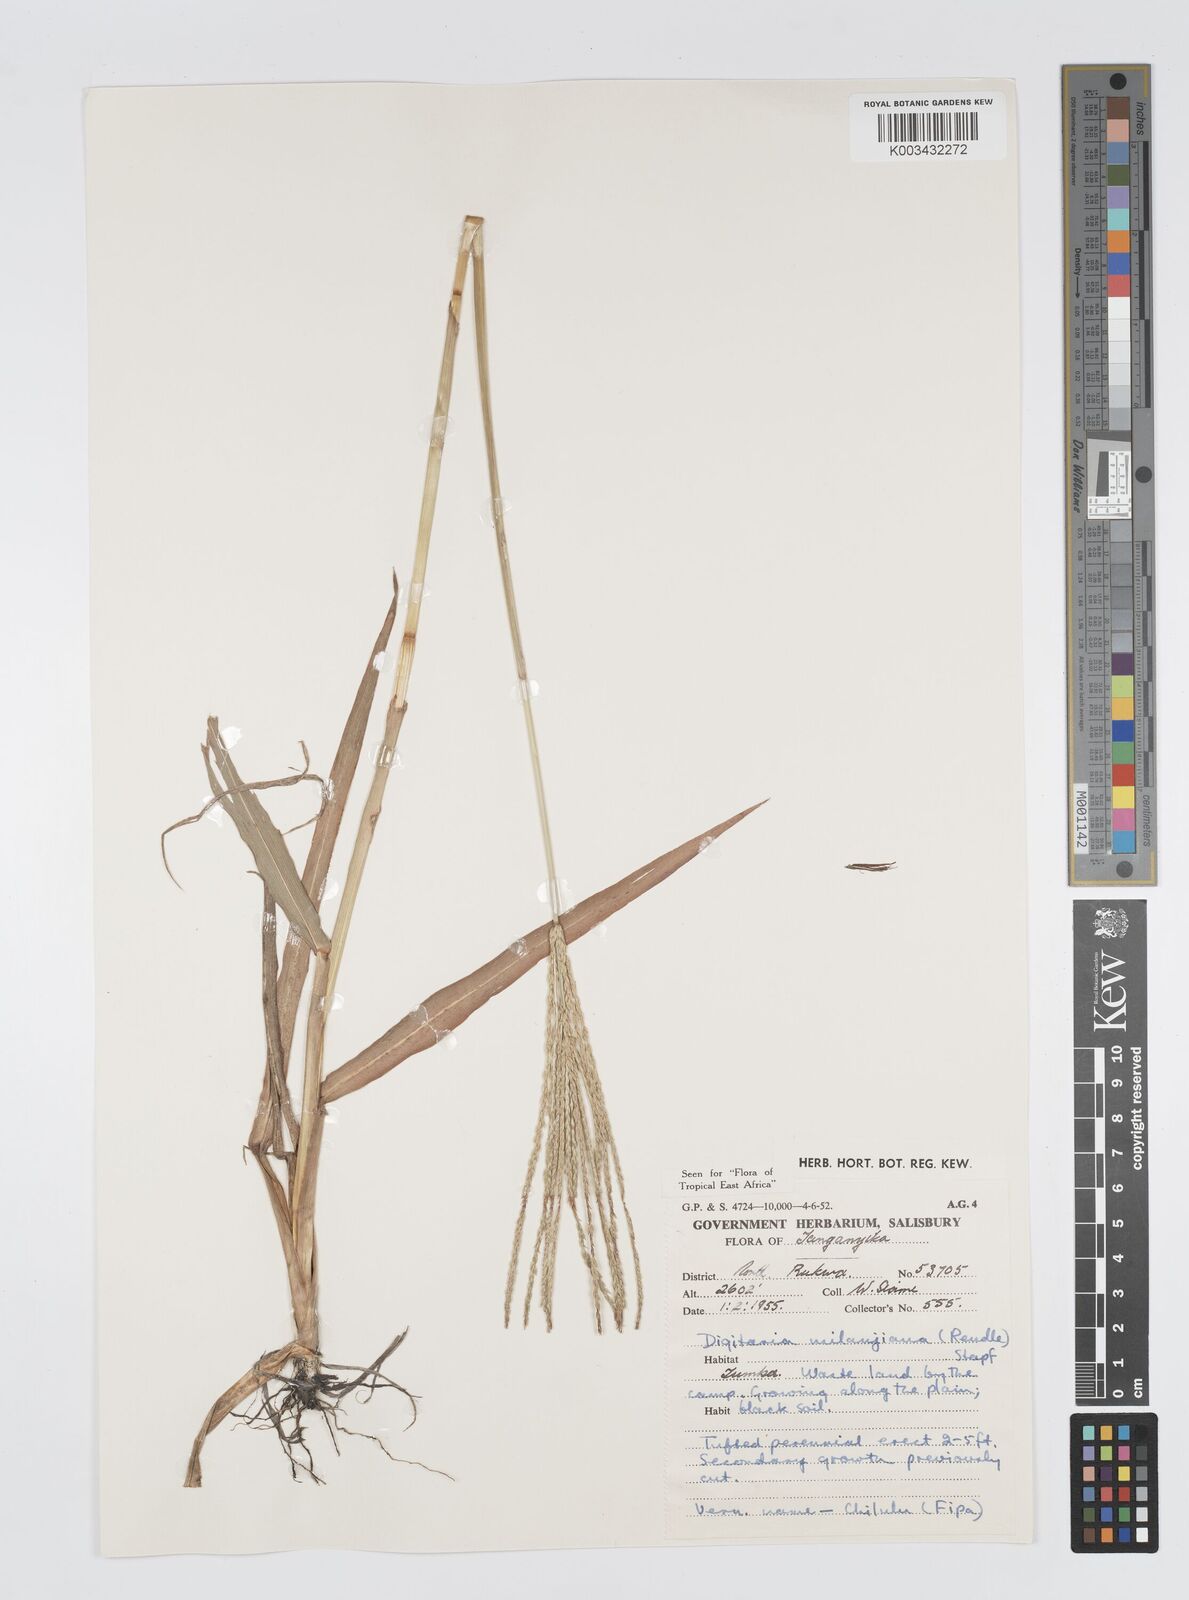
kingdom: Plantae
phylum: Tracheophyta
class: Liliopsida
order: Poales
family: Poaceae
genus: Digitaria
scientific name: Digitaria milanjiana
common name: Madagascar crabgrass
